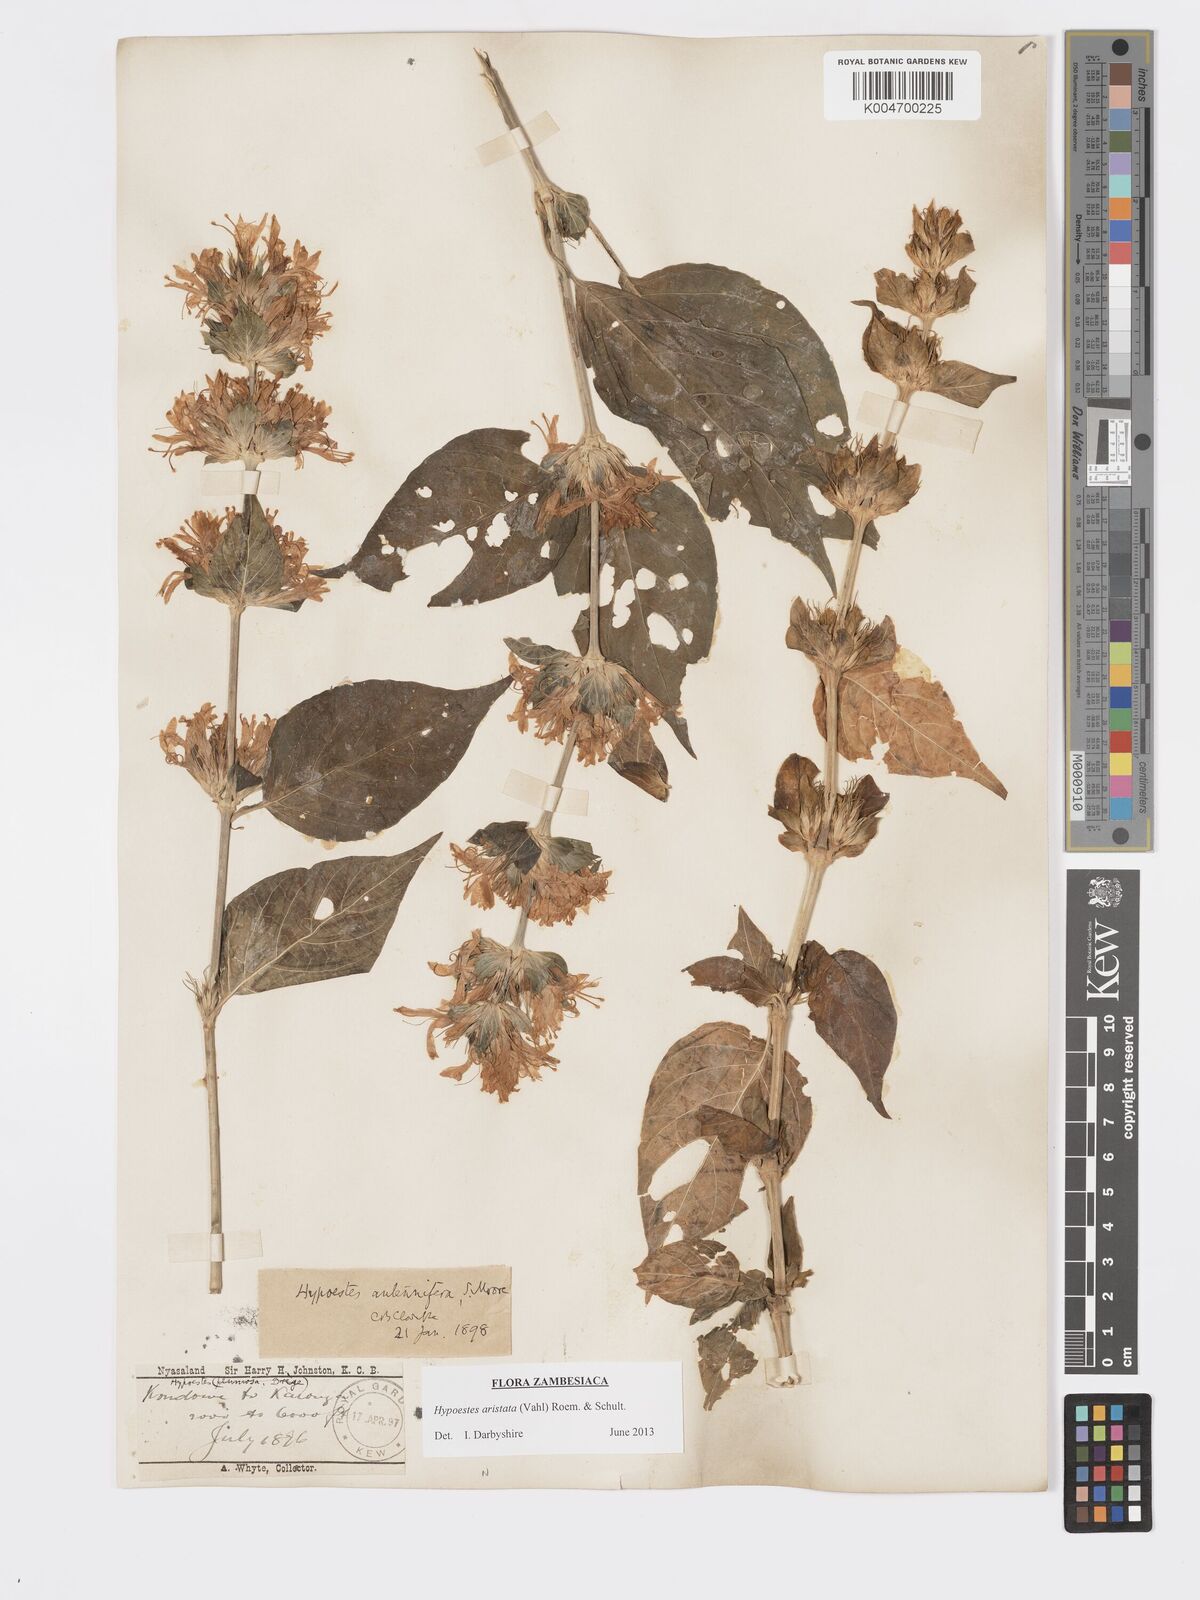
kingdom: Plantae
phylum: Tracheophyta
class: Magnoliopsida
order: Lamiales
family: Acanthaceae
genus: Hypoestes
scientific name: Hypoestes aristata
